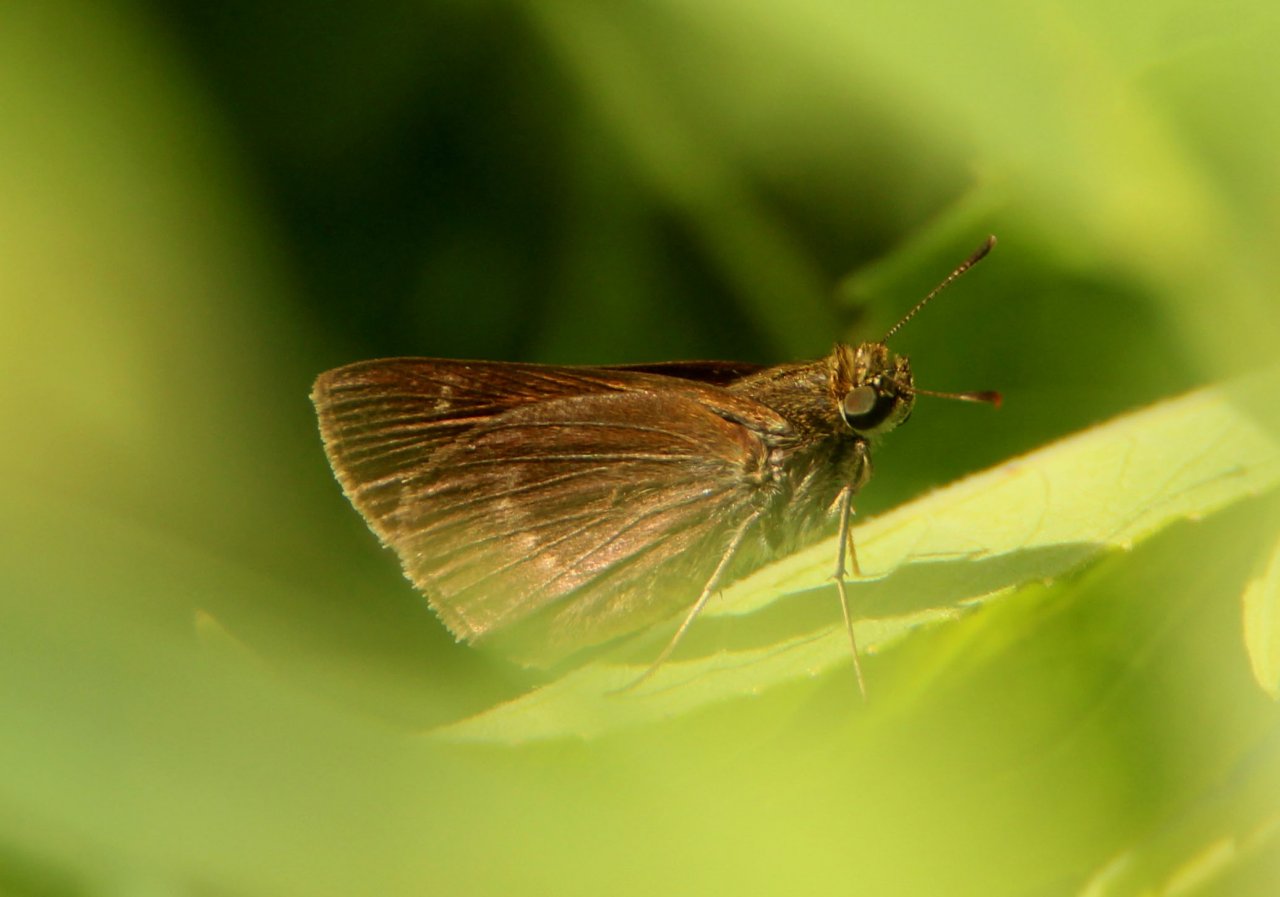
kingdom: Animalia
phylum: Arthropoda
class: Insecta
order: Lepidoptera
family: Hesperiidae
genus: Vernia
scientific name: Vernia verna
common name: Little Glassywing
